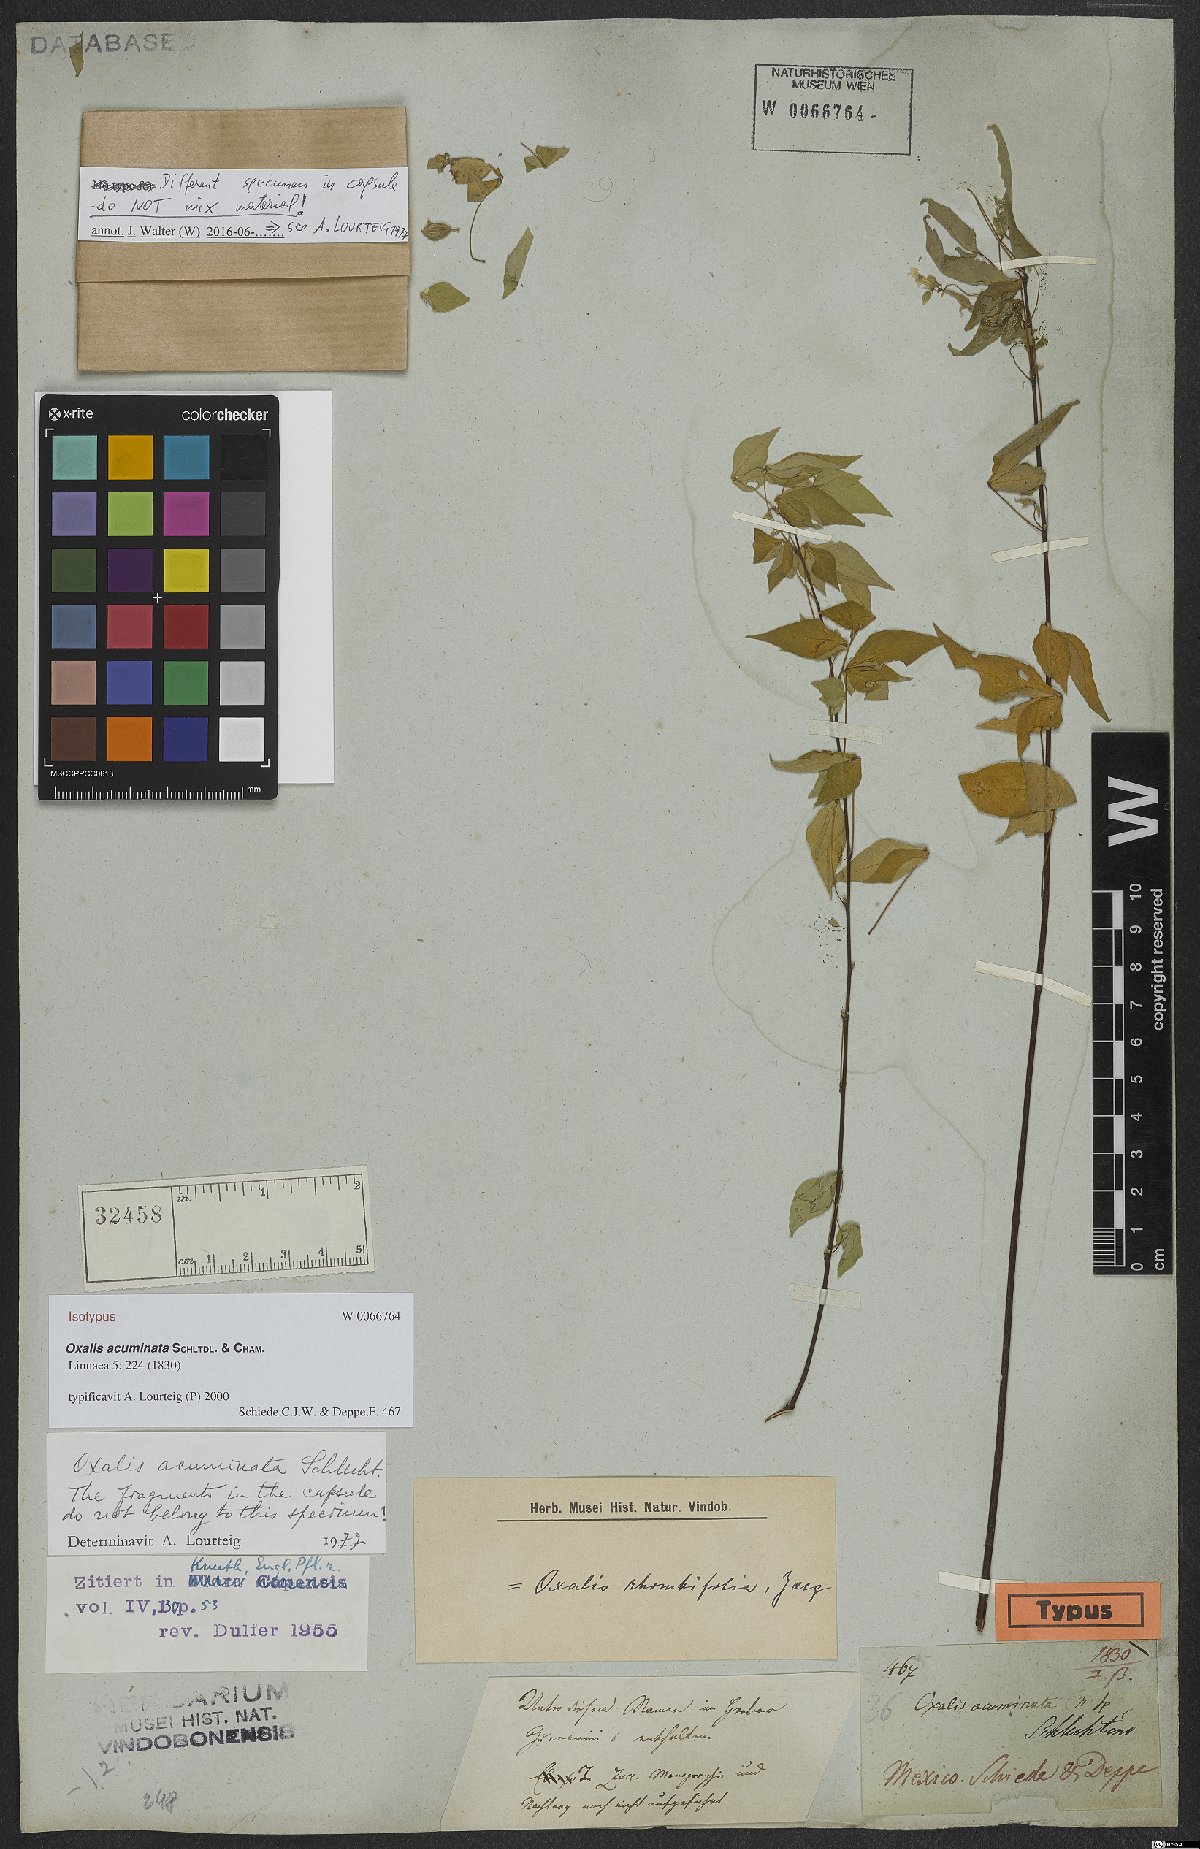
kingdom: Plantae
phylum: Tracheophyta
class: Magnoliopsida
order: Oxalidales
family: Oxalidaceae
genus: Oxalis
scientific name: Oxalis rhombifolia
